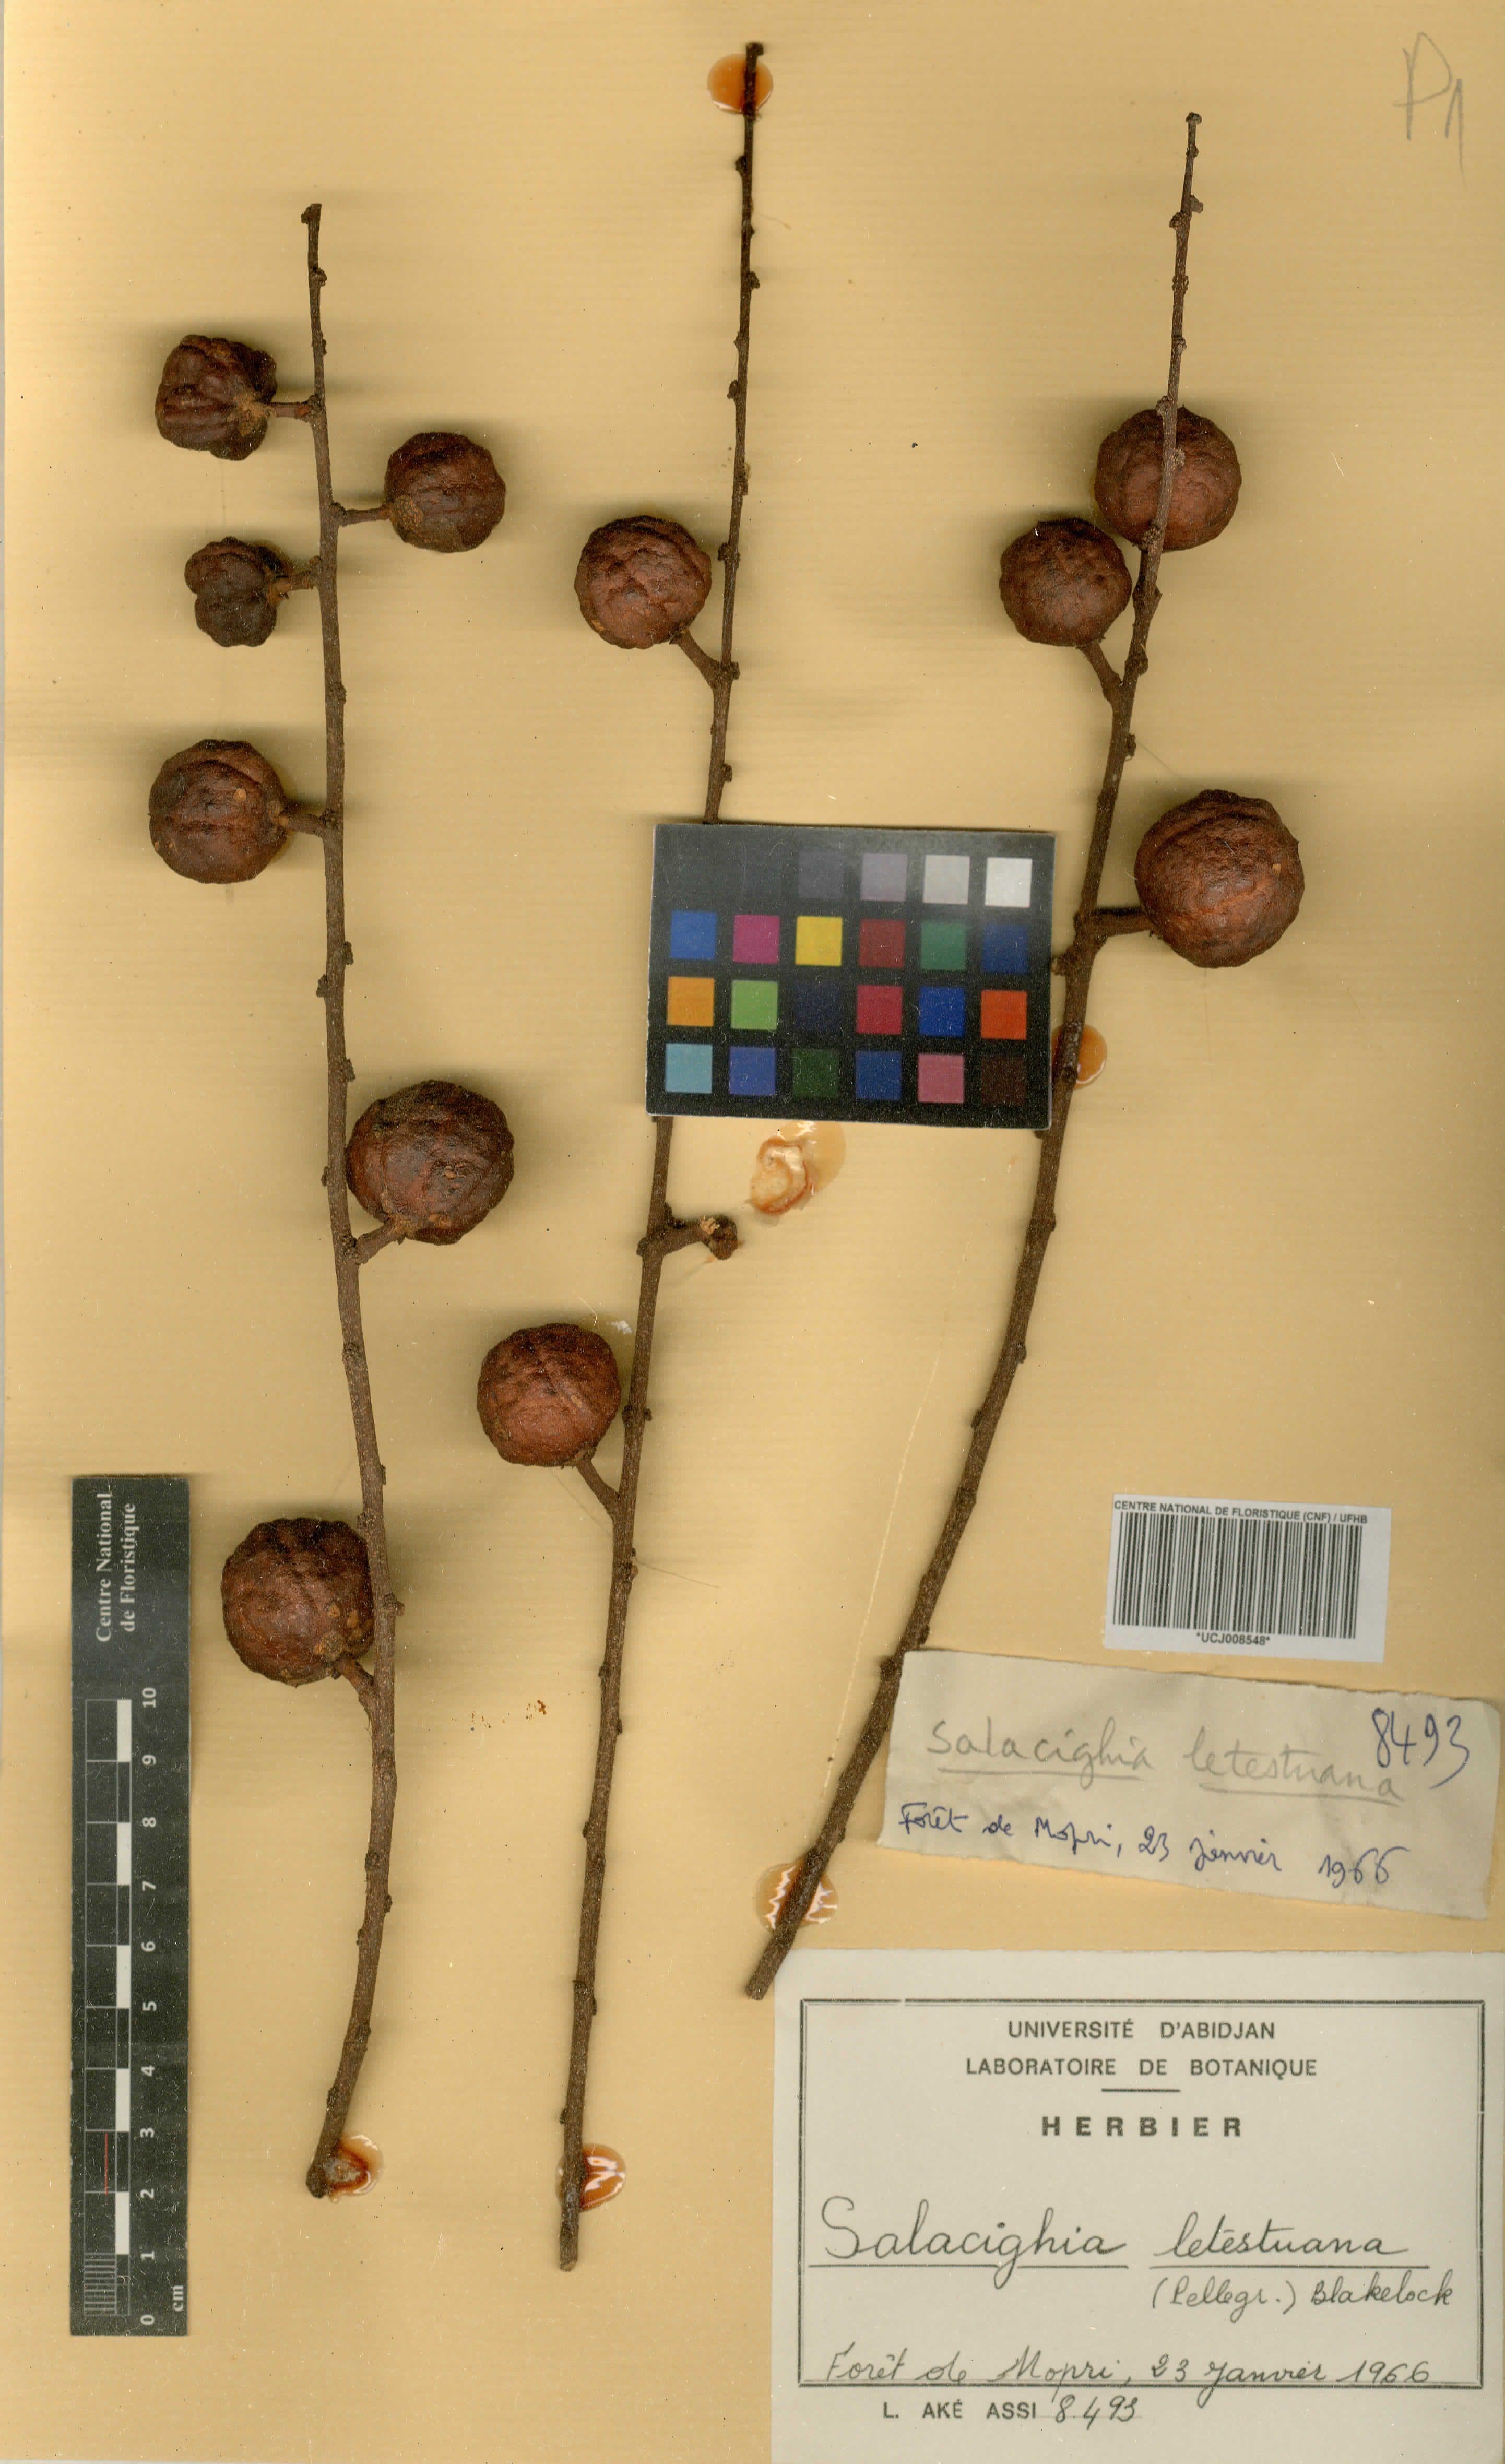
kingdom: Plantae
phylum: Tracheophyta
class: Magnoliopsida
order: Celastrales
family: Celastraceae
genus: Salacighia
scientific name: Salacighia letestuana
